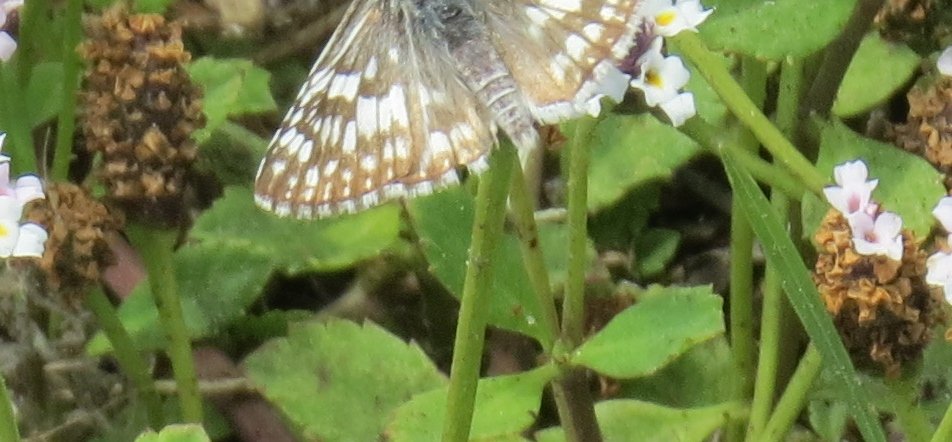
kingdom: Animalia
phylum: Arthropoda
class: Insecta
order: Lepidoptera
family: Hesperiidae
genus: Pyrgus
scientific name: Pyrgus communis
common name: White Checkered-Skipper
